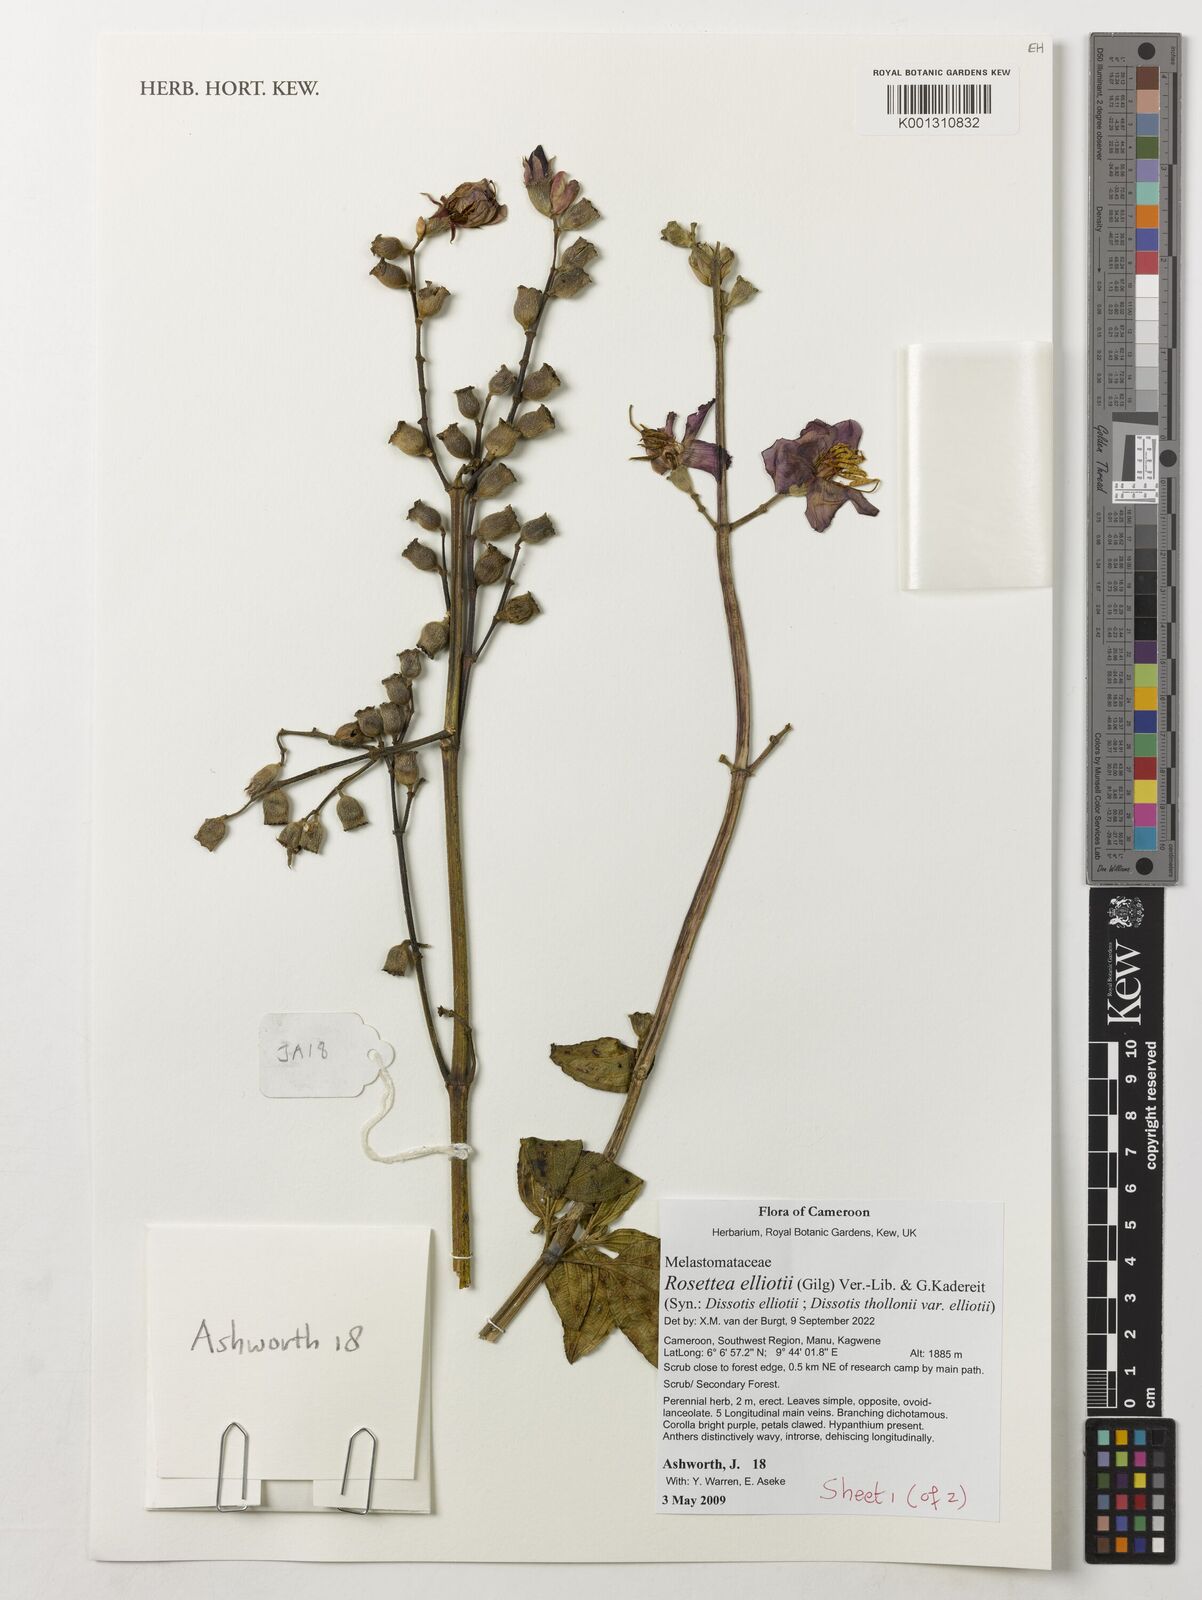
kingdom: Plantae
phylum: Tracheophyta
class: Magnoliopsida
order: Myrtales
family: Melastomataceae
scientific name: Melastomataceae
